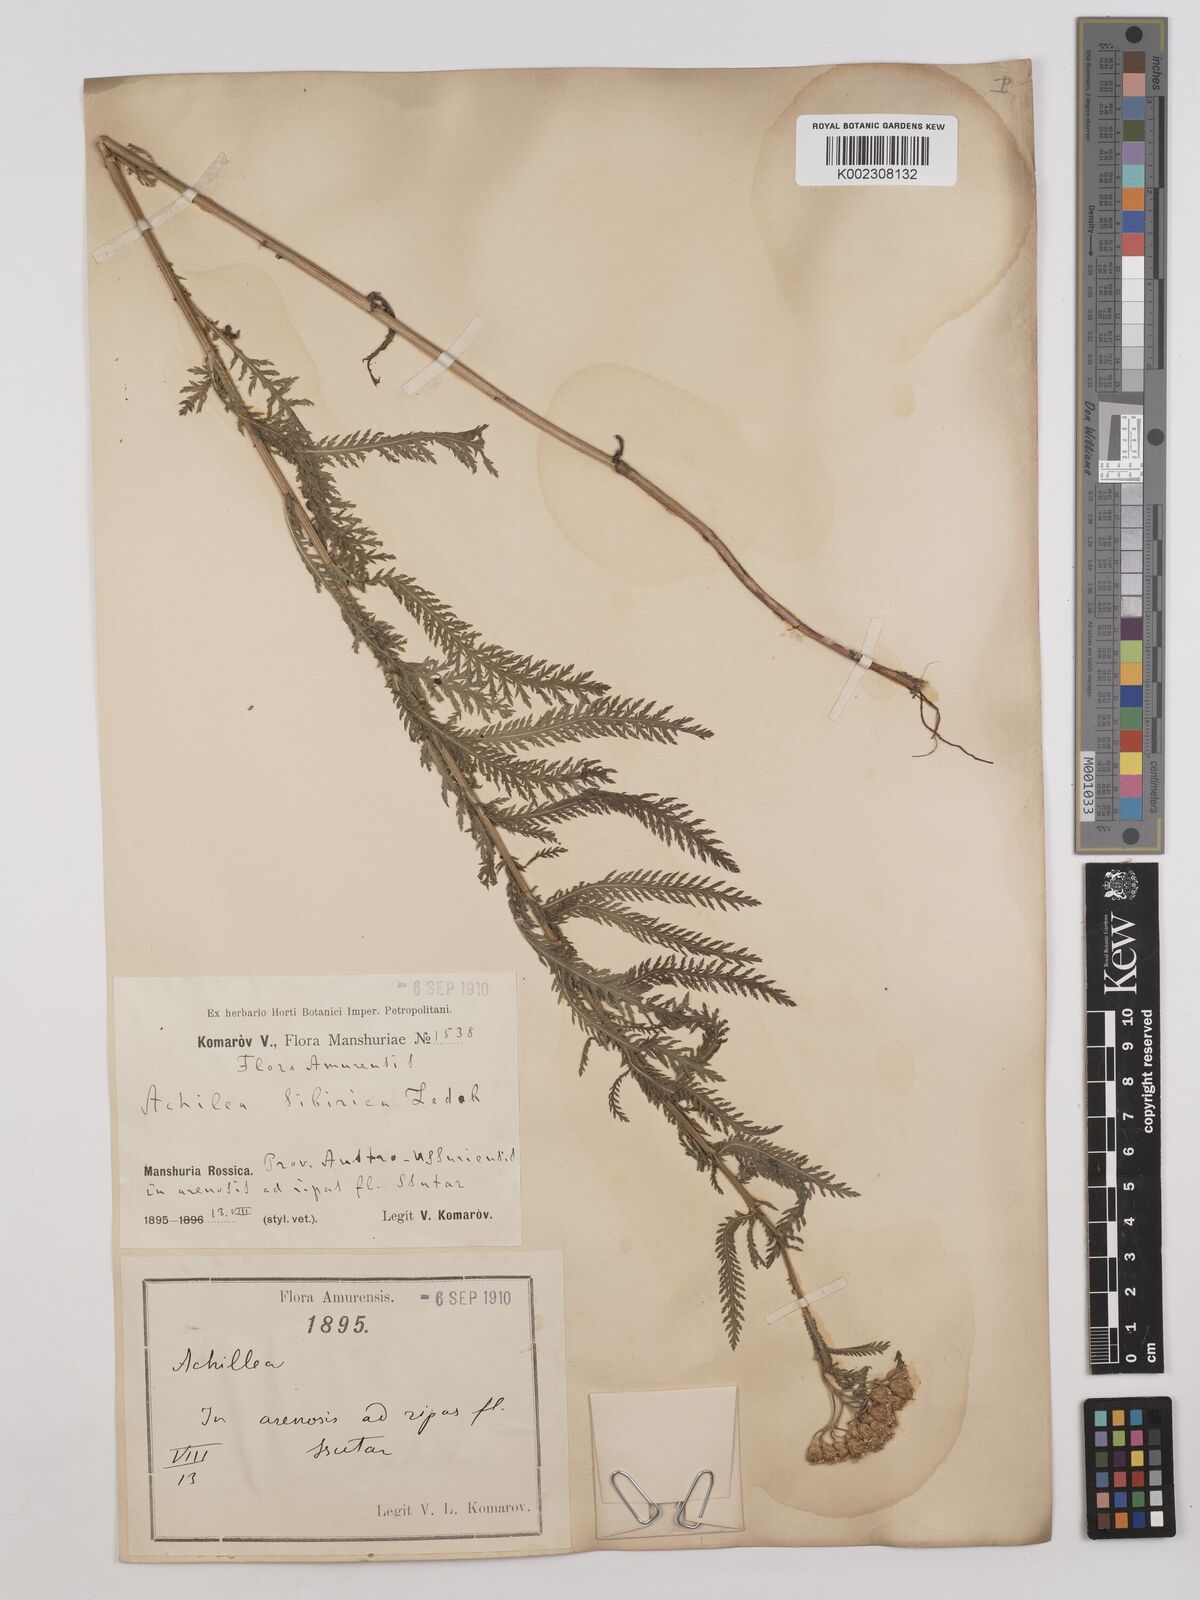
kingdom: Plantae
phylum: Tracheophyta
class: Magnoliopsida
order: Asterales
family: Asteraceae
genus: Achillea
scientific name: Achillea alpina
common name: Siberian yarrow
